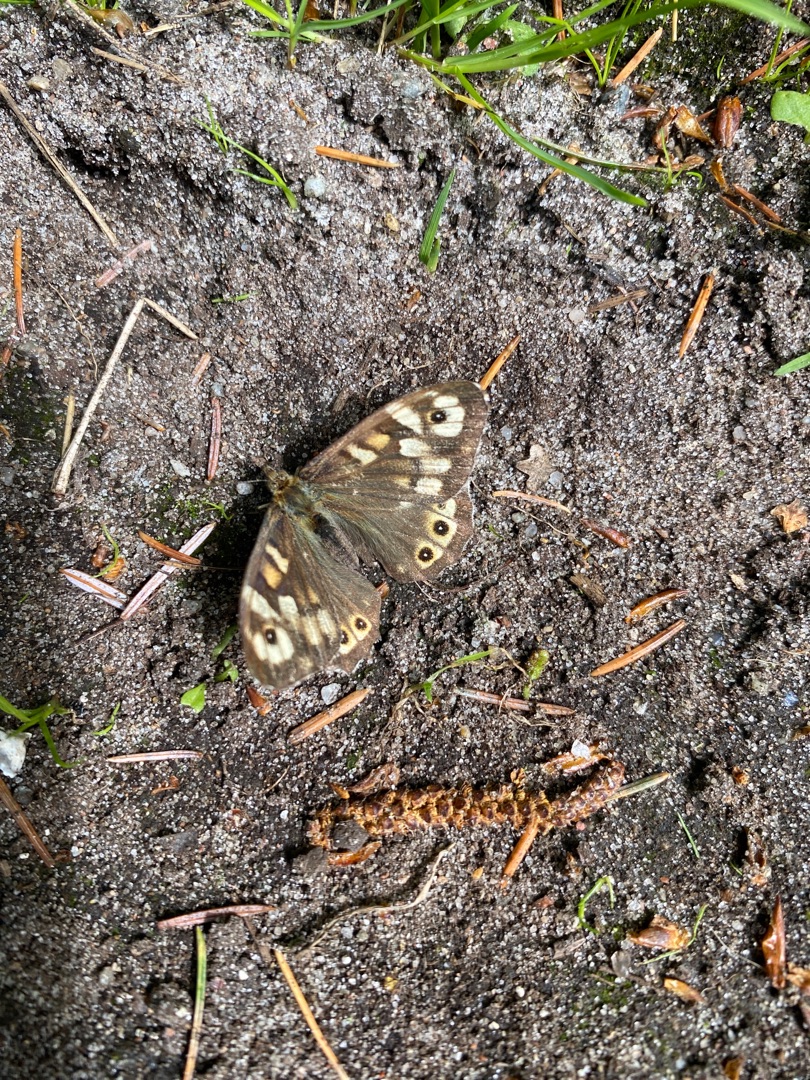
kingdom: Animalia
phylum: Arthropoda
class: Insecta
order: Lepidoptera
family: Nymphalidae
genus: Pararge
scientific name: Pararge aegeria
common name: Skovrandøje
